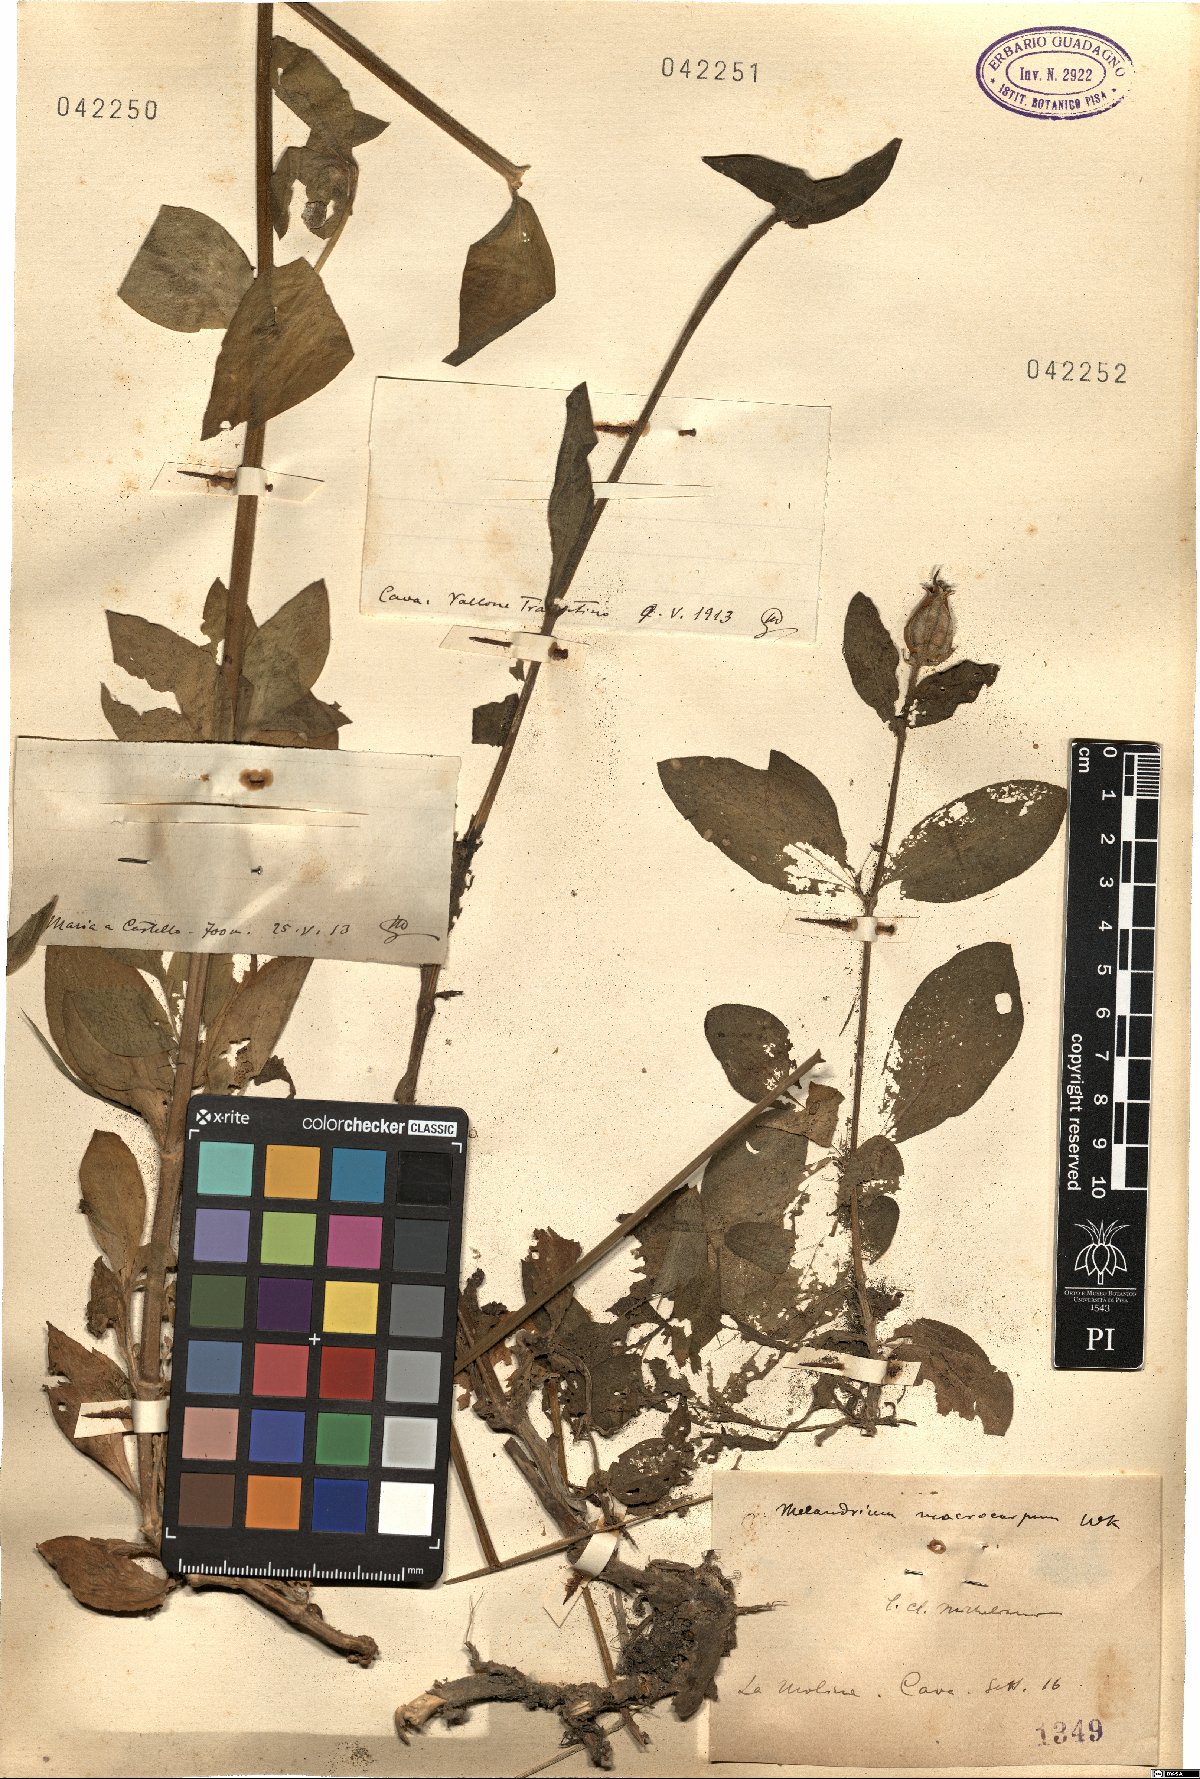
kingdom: Plantae
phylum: Tracheophyta
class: Magnoliopsida
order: Caryophyllales
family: Caryophyllaceae
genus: Silene
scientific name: Silene latifolia
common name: White campion
